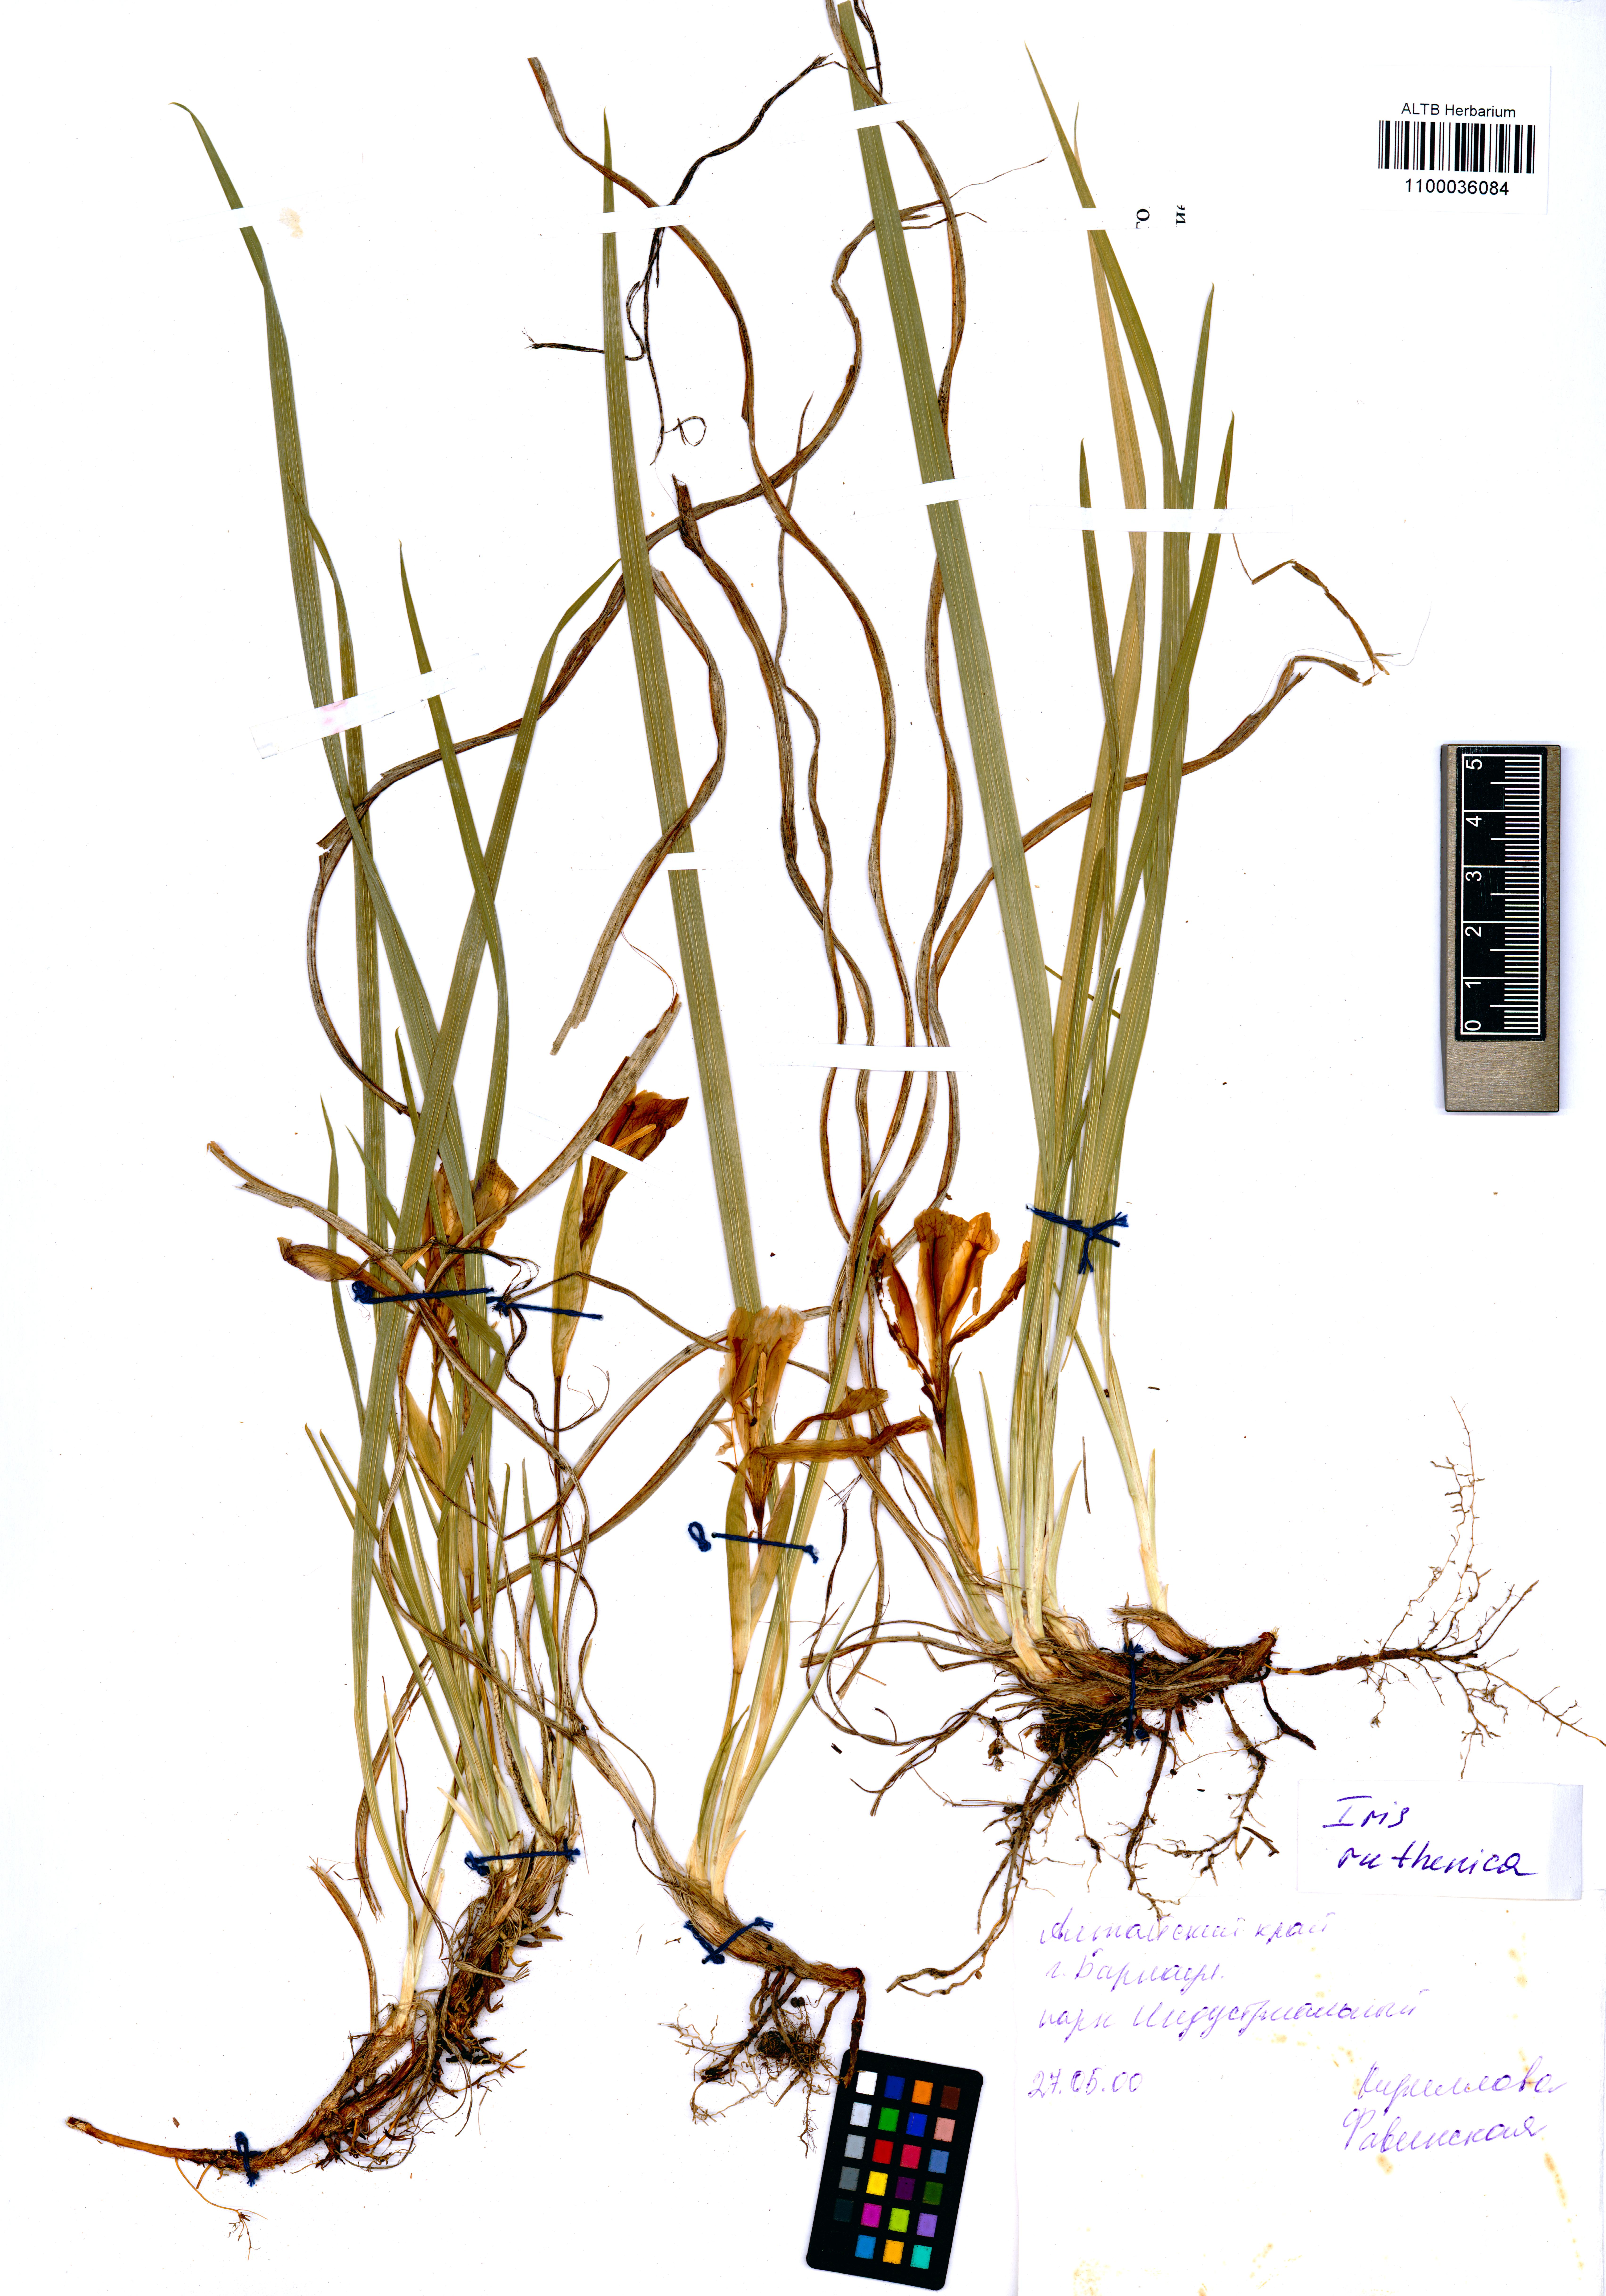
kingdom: Plantae
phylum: Tracheophyta
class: Liliopsida
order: Asparagales
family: Iridaceae
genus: Iris
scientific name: Iris ruthenica
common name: Purple-bract iris
